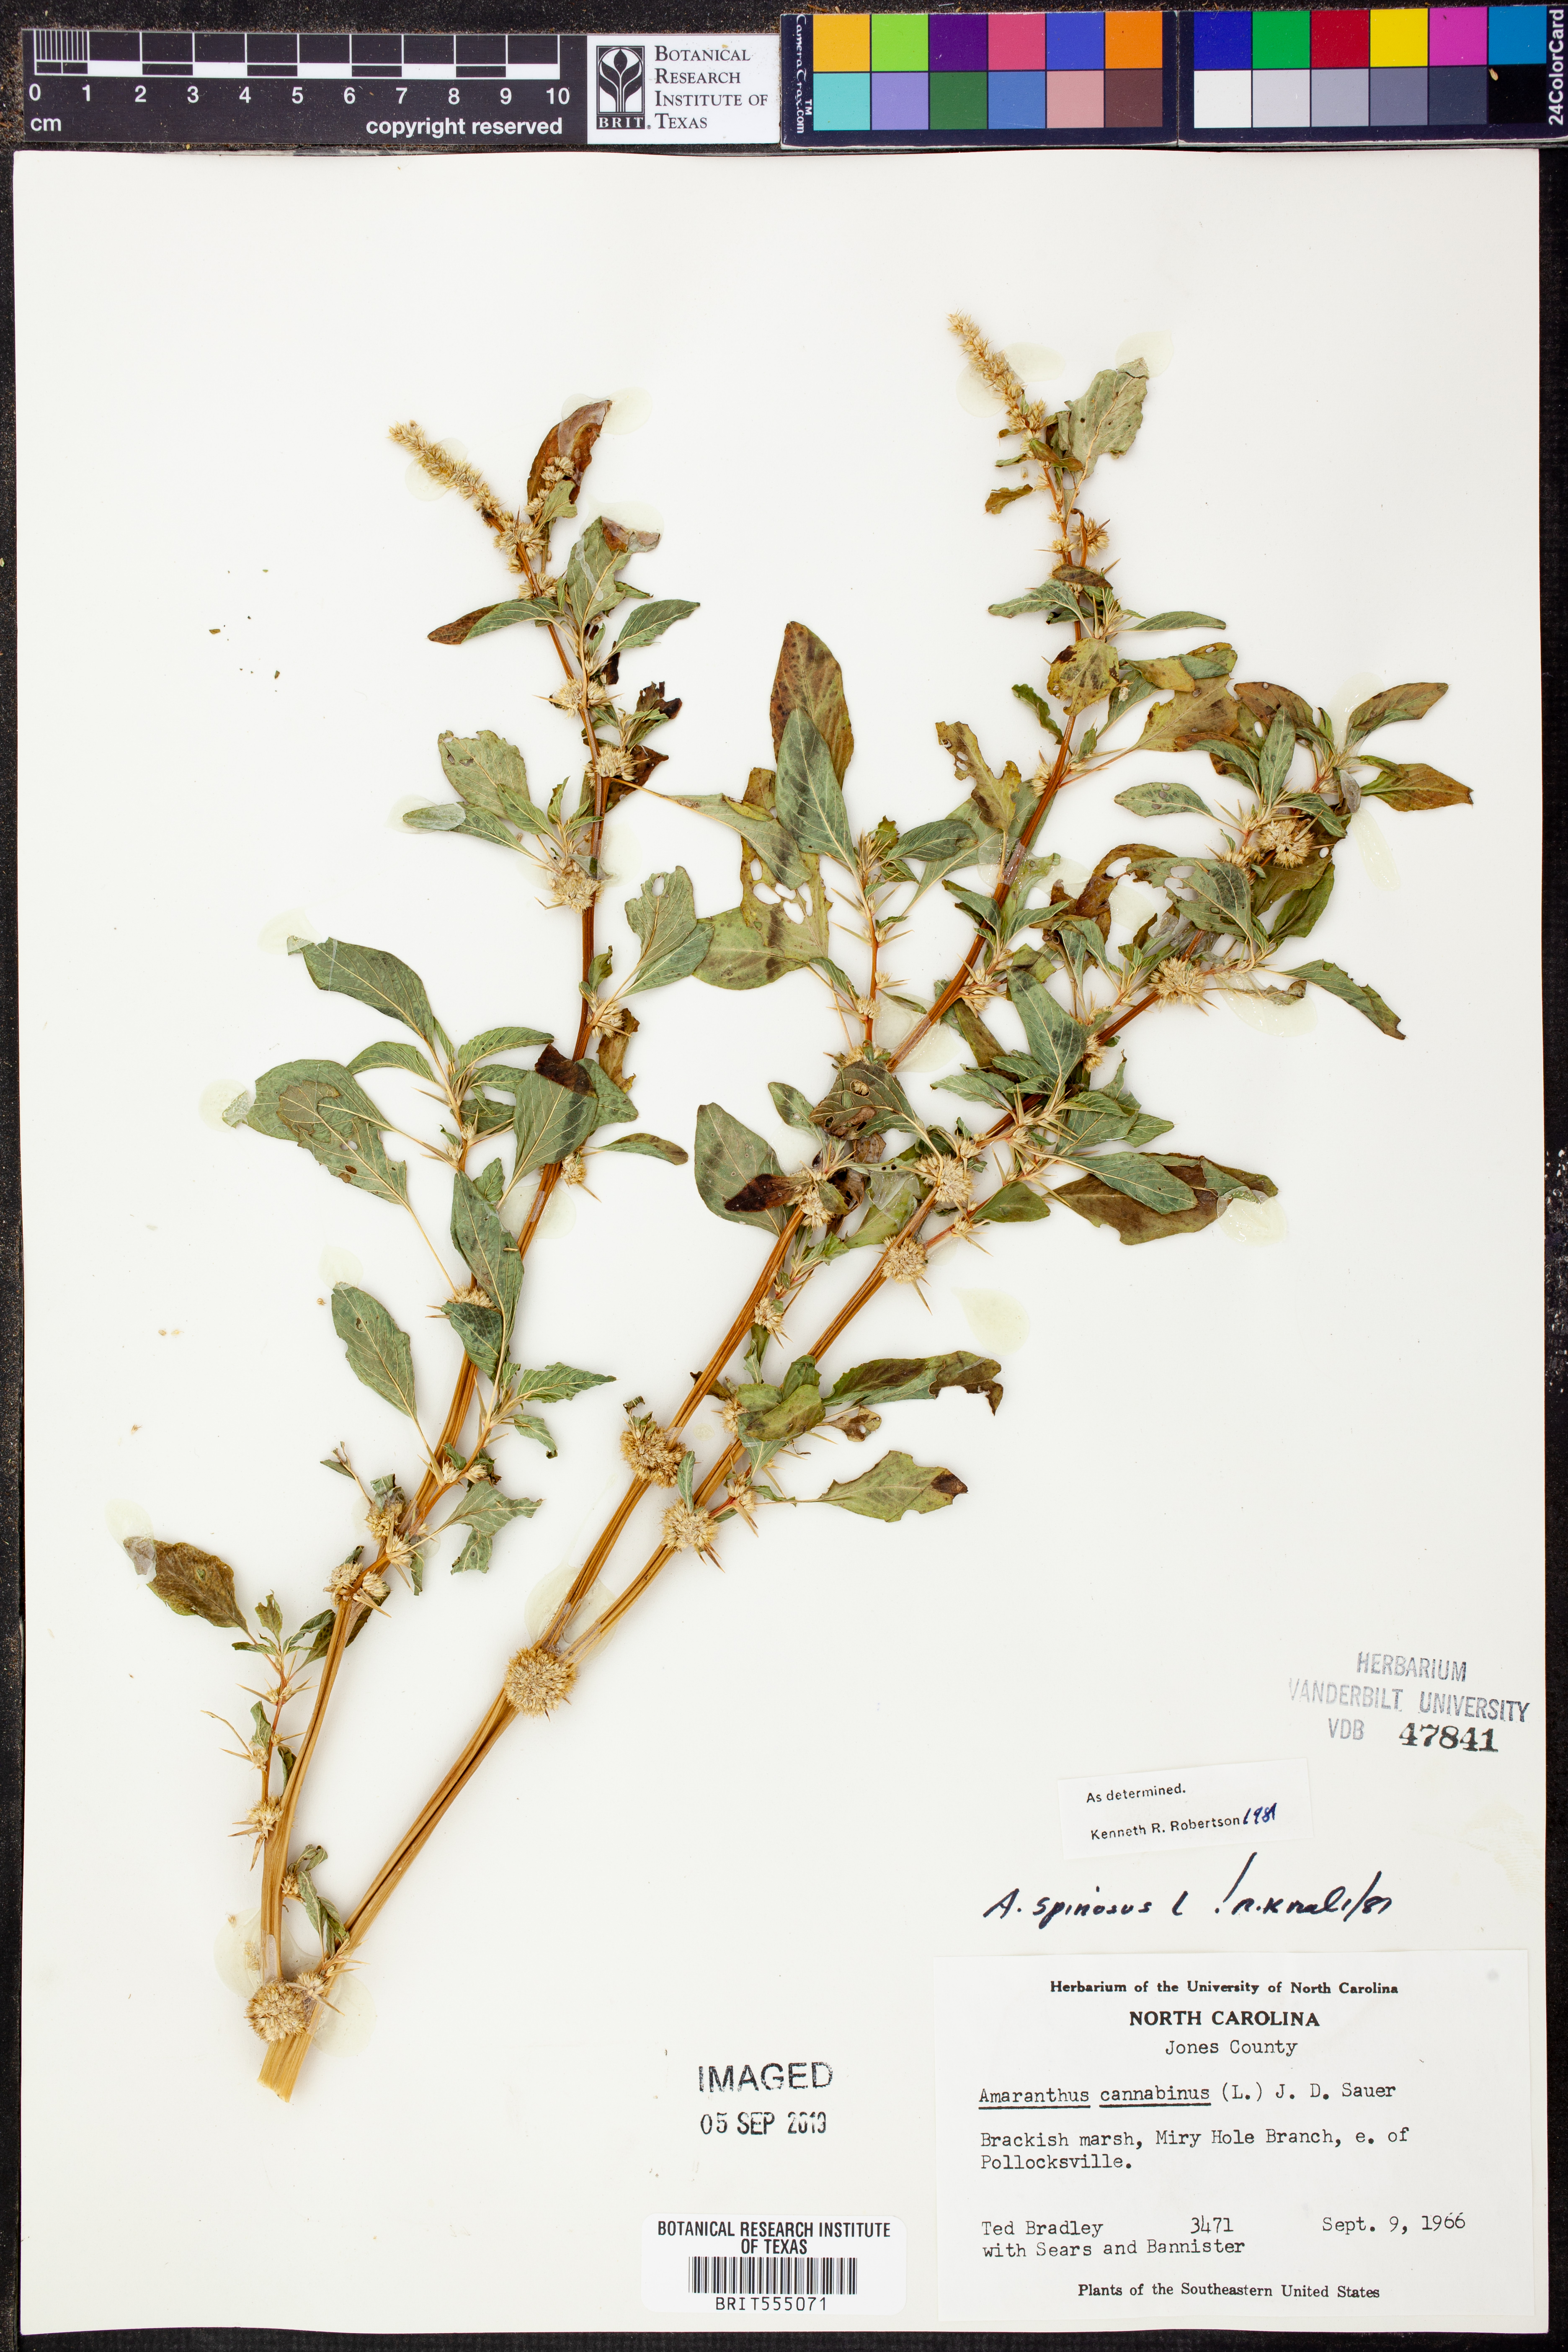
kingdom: Plantae
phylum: Tracheophyta
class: Magnoliopsida
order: Caryophyllales
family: Amaranthaceae
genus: Amaranthus
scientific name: Amaranthus spinosus
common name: Spiny amaranth
